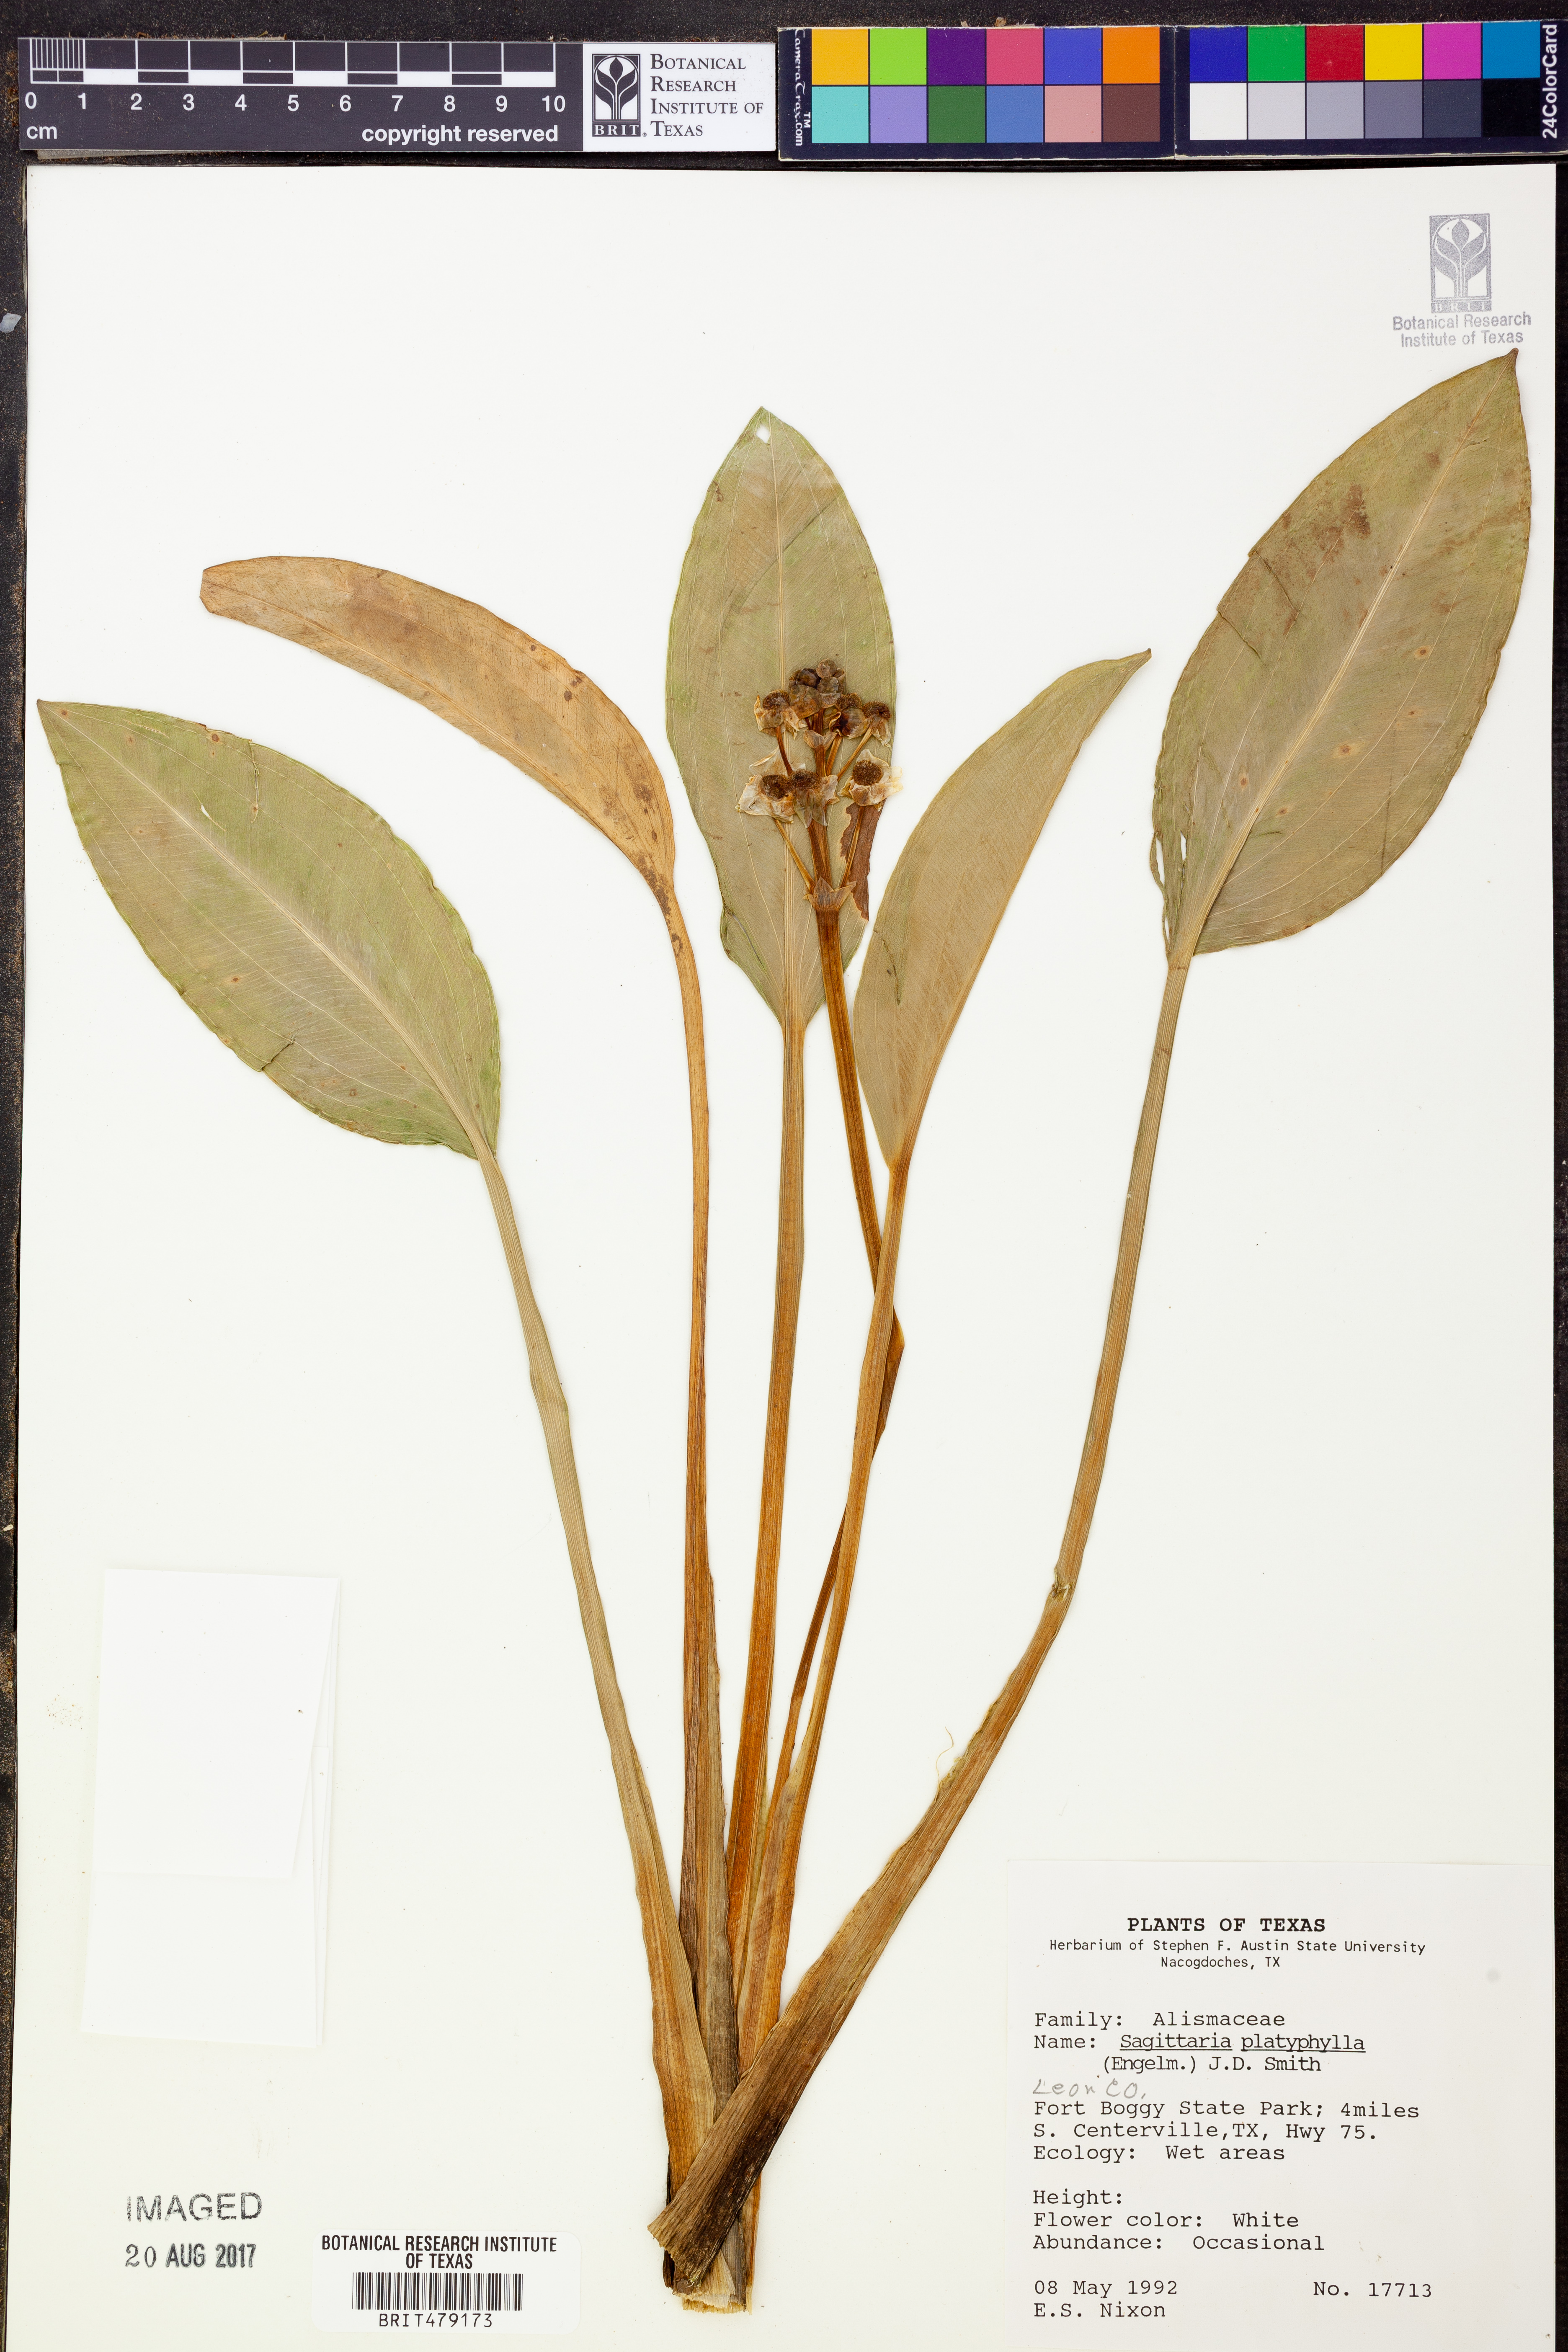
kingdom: Plantae
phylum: Tracheophyta
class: Liliopsida
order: Alismatales
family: Alismataceae
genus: Sagittaria
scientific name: Sagittaria platyphylla
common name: Broad-leaf arrowhead
